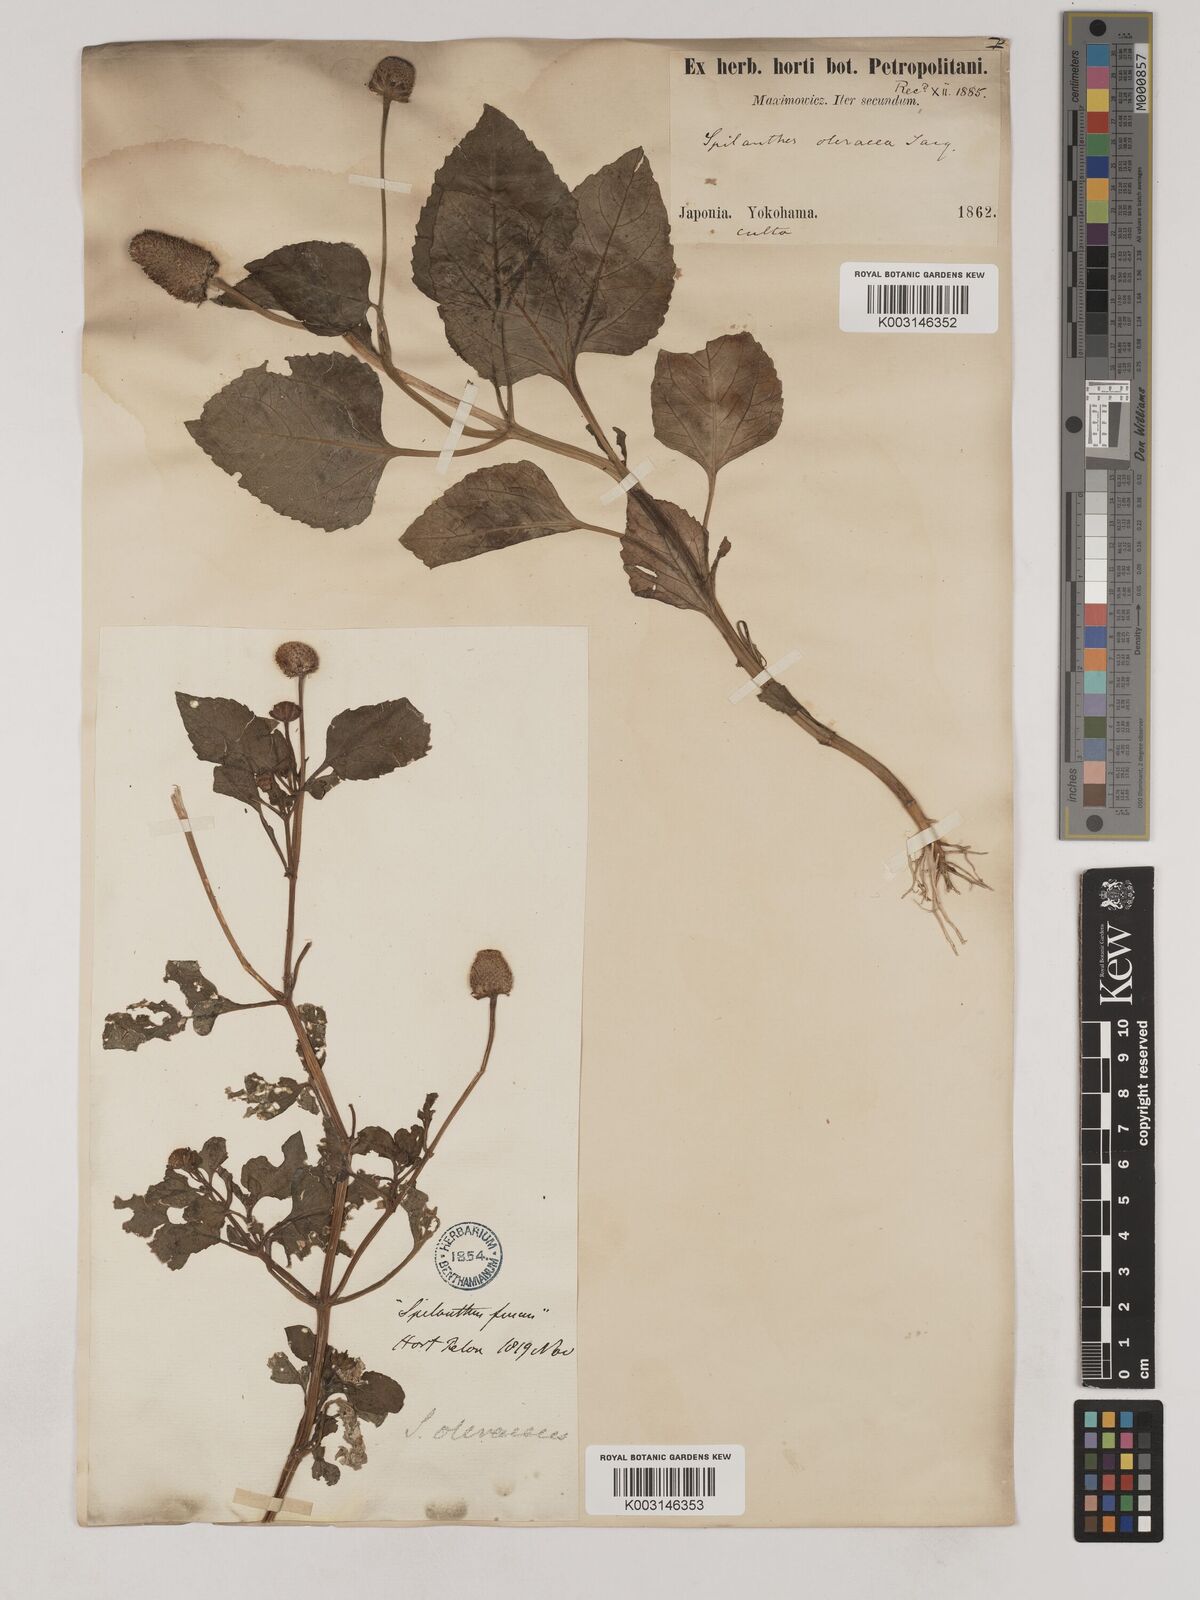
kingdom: Plantae
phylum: Tracheophyta
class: Magnoliopsida
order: Asterales
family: Asteraceae
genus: Acmella
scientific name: Acmella paniculata
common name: Panicled spot flower
